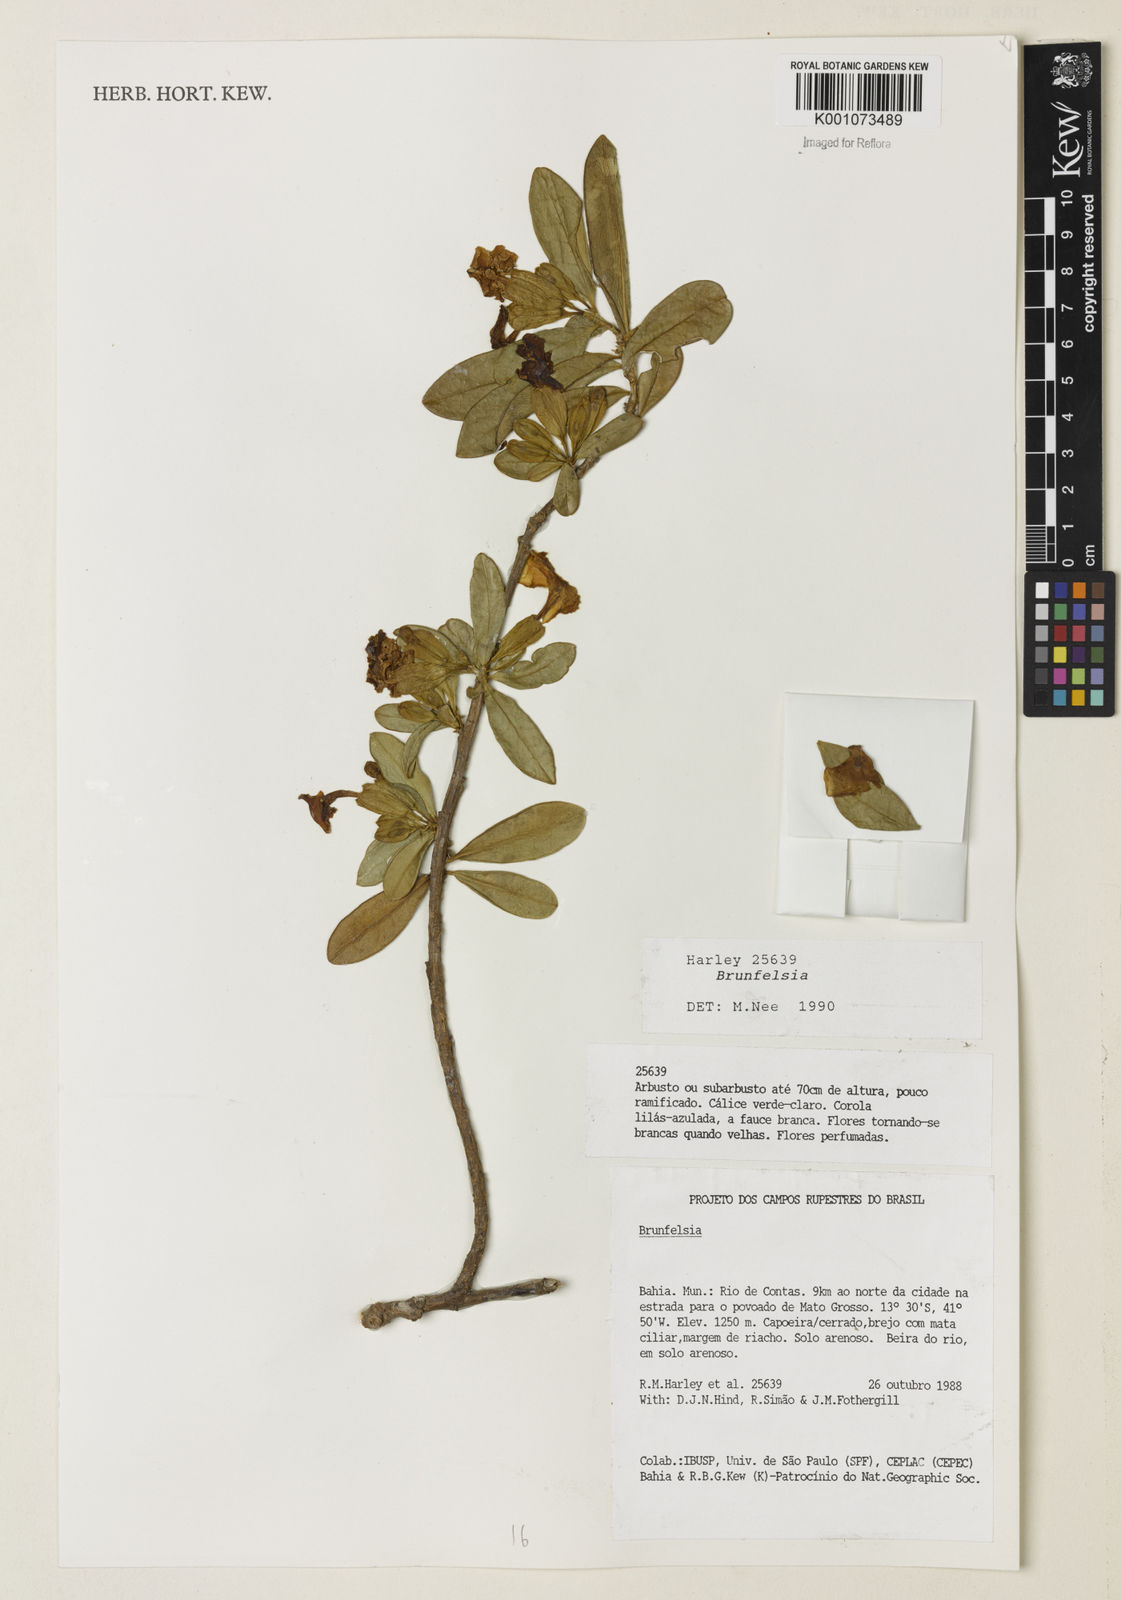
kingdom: Plantae
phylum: Tracheophyta
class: Magnoliopsida
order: Solanales
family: Solanaceae
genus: Brunfelsia
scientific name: Brunfelsia
